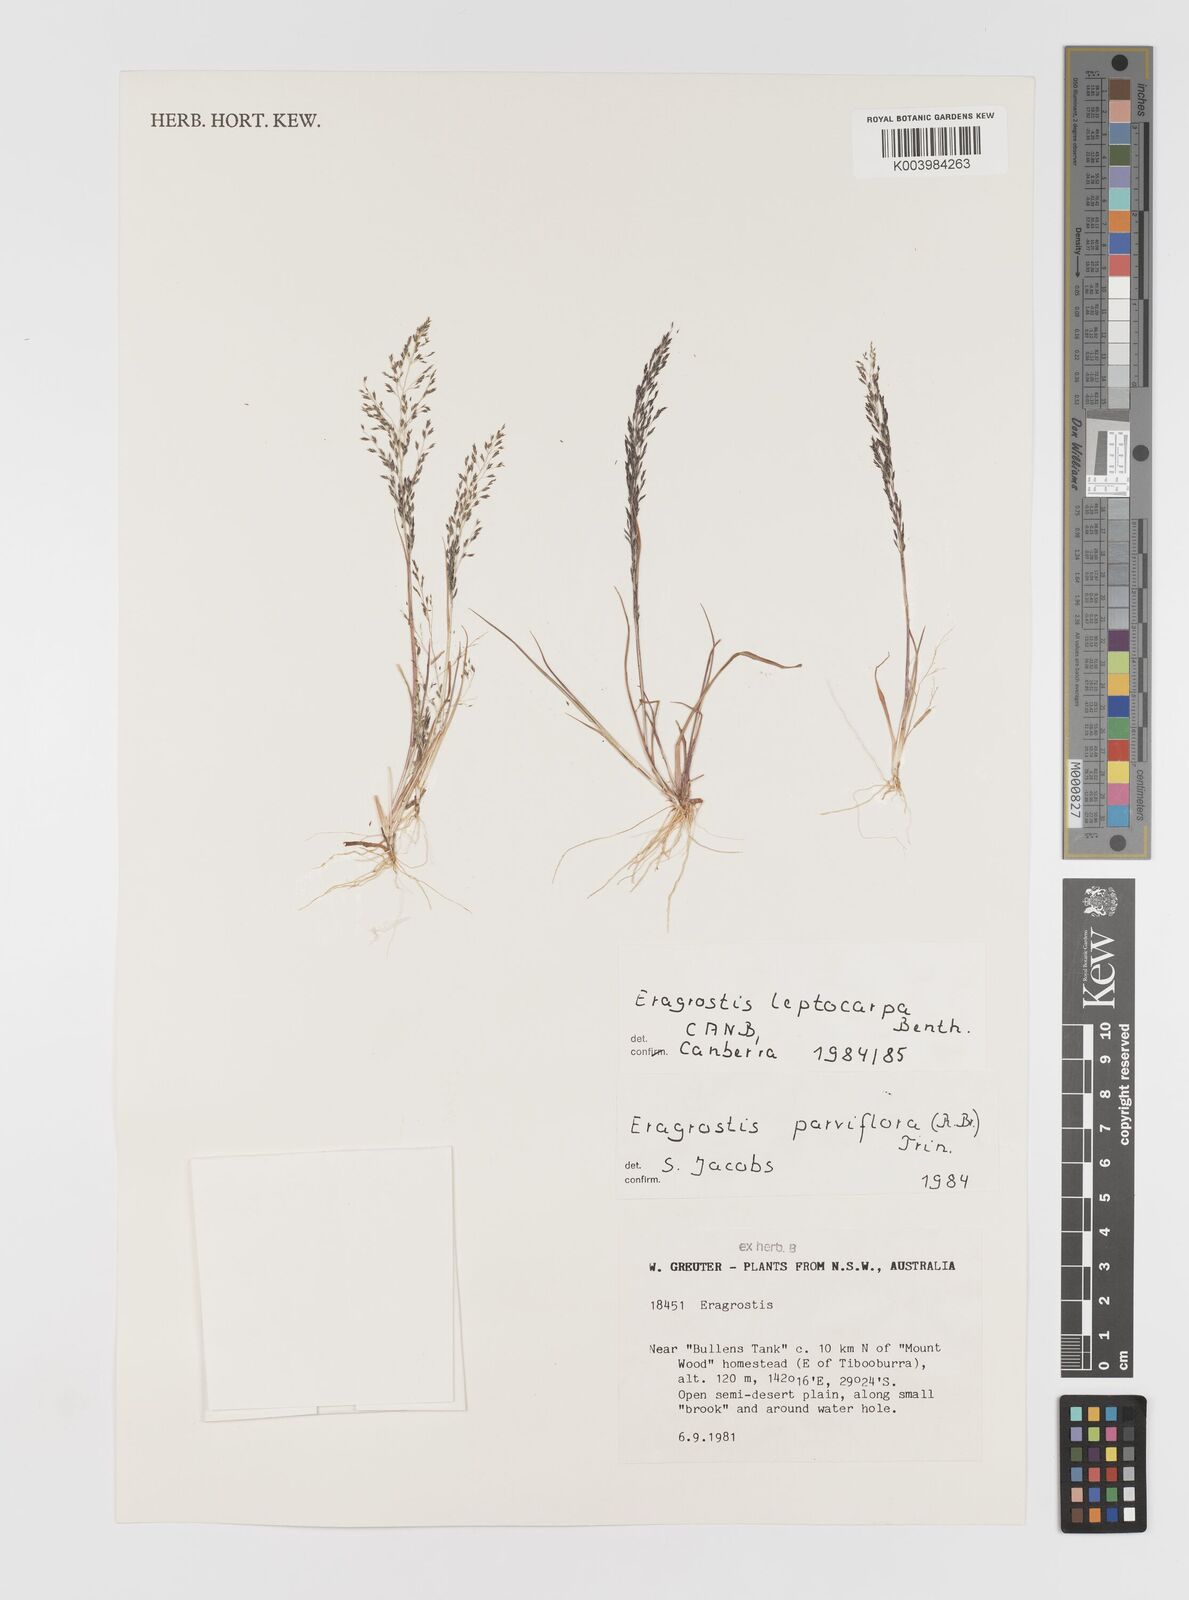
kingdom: Plantae
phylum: Tracheophyta
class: Liliopsida
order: Poales
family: Poaceae
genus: Eragrostis
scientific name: Eragrostis leptocarpa
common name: Drooping love grass
